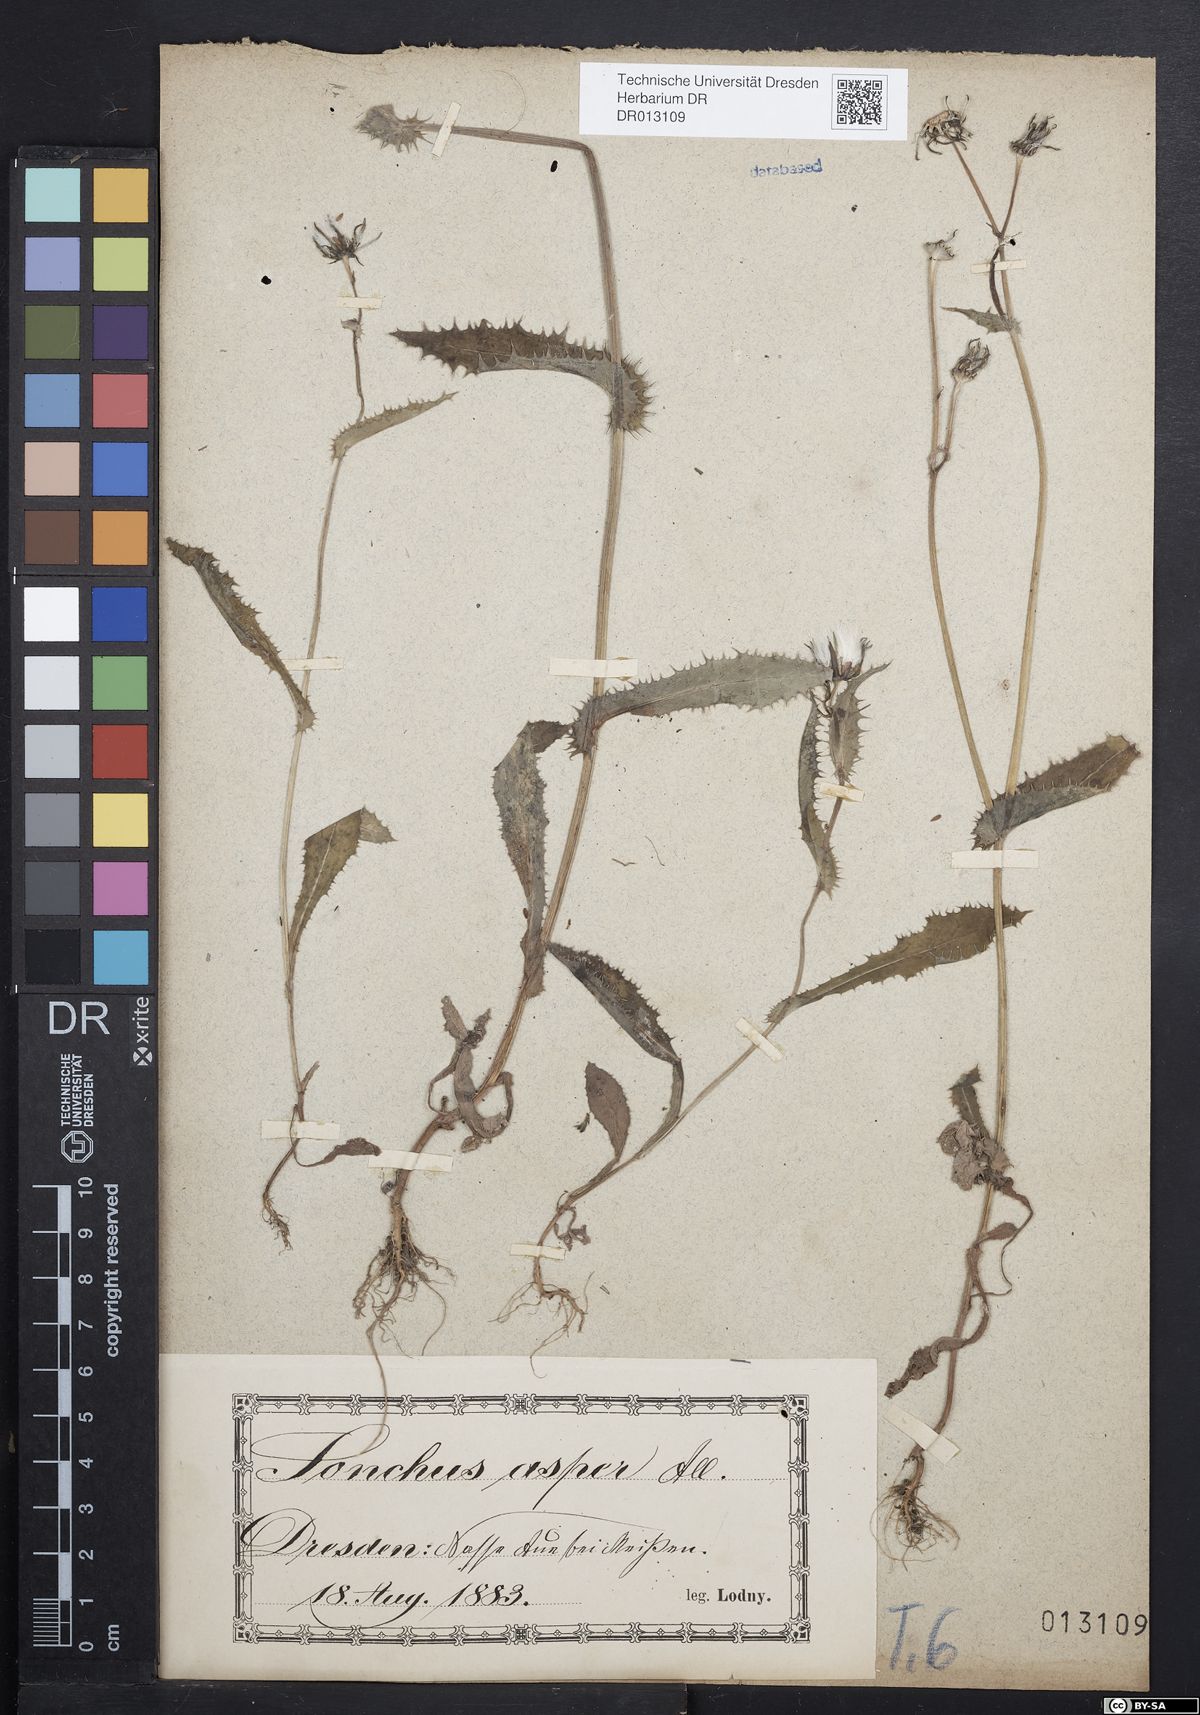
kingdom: Plantae
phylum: Tracheophyta
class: Magnoliopsida
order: Asterales
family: Asteraceae
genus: Sonchus
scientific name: Sonchus asper
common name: Prickly sow-thistle
